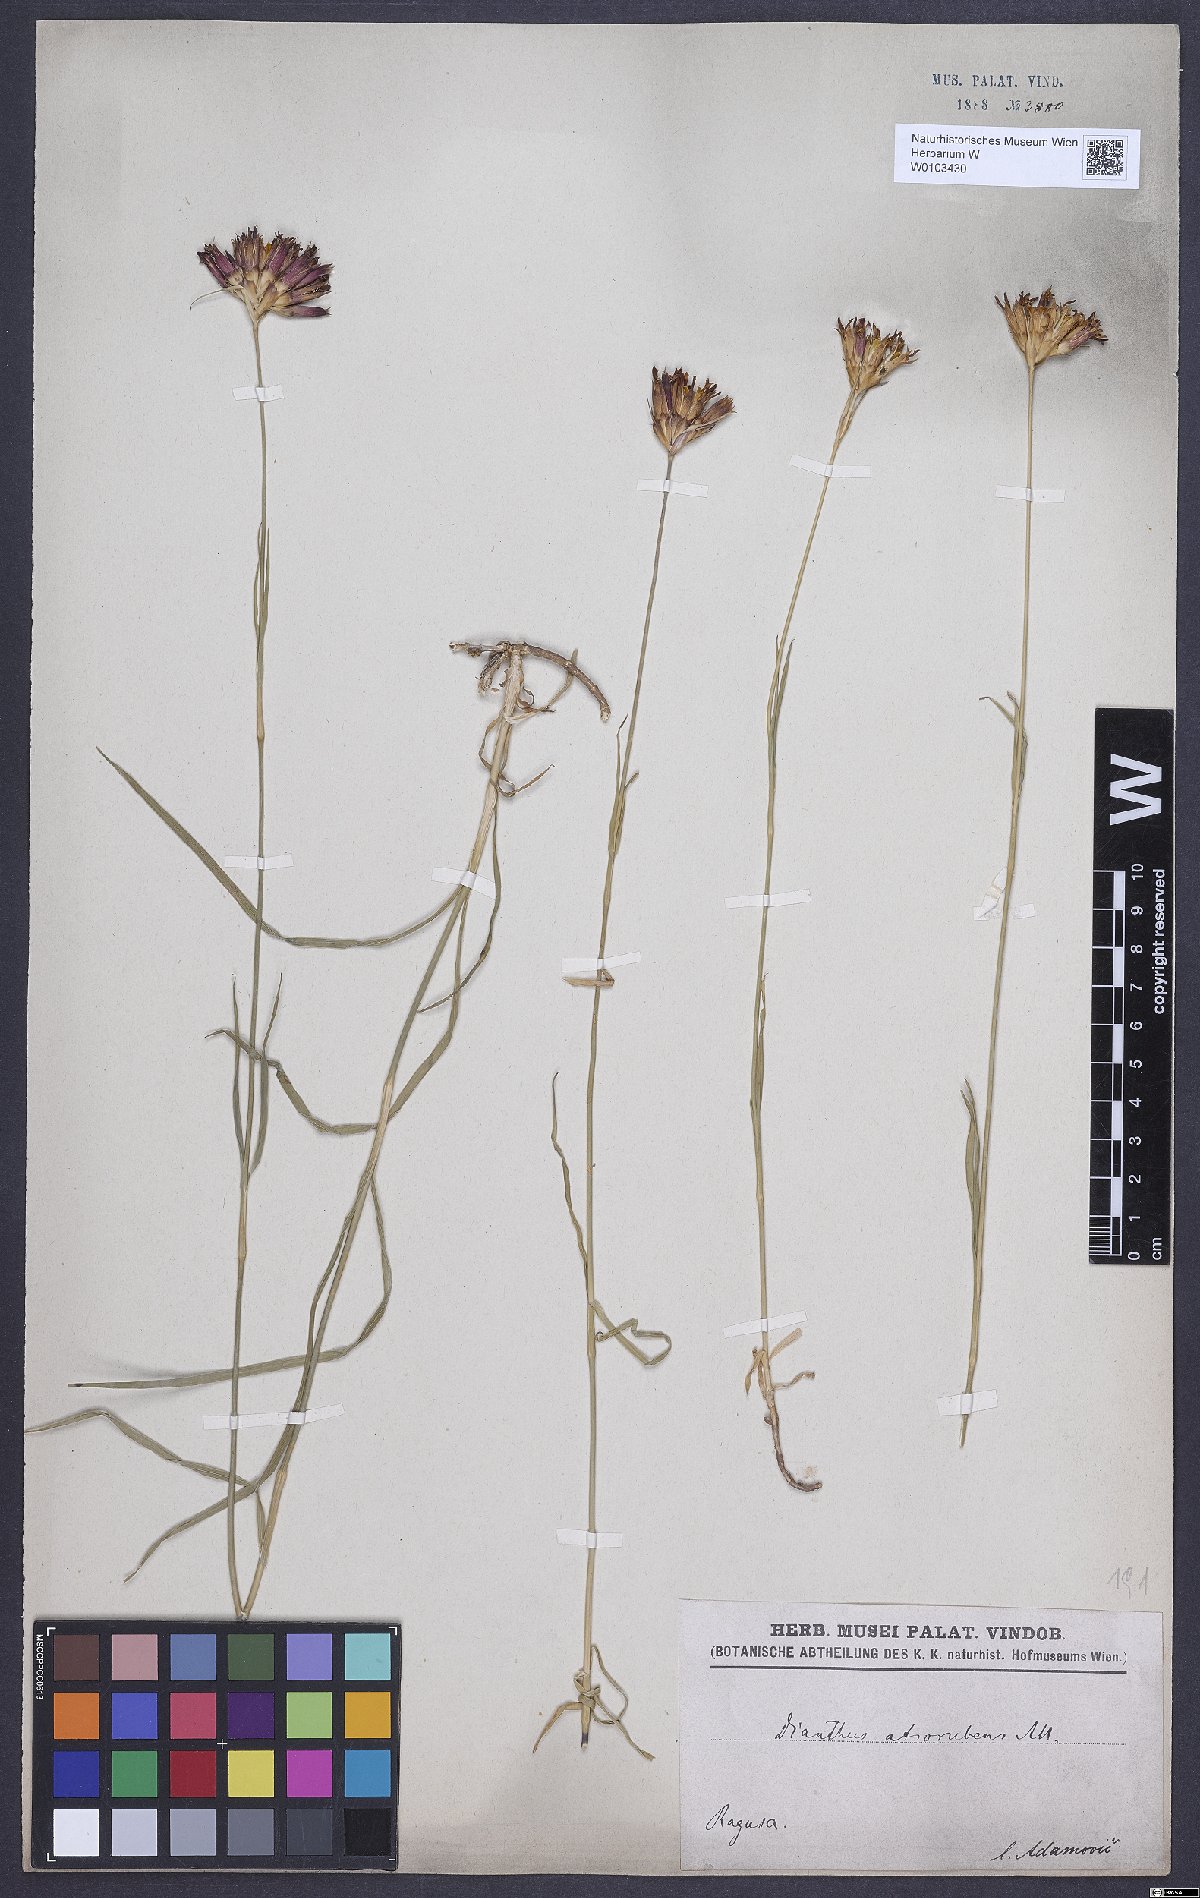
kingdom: Plantae
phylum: Tracheophyta
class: Magnoliopsida
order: Caryophyllales
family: Caryophyllaceae
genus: Dianthus
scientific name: Dianthus carthusianorum
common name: Carthusian pink
